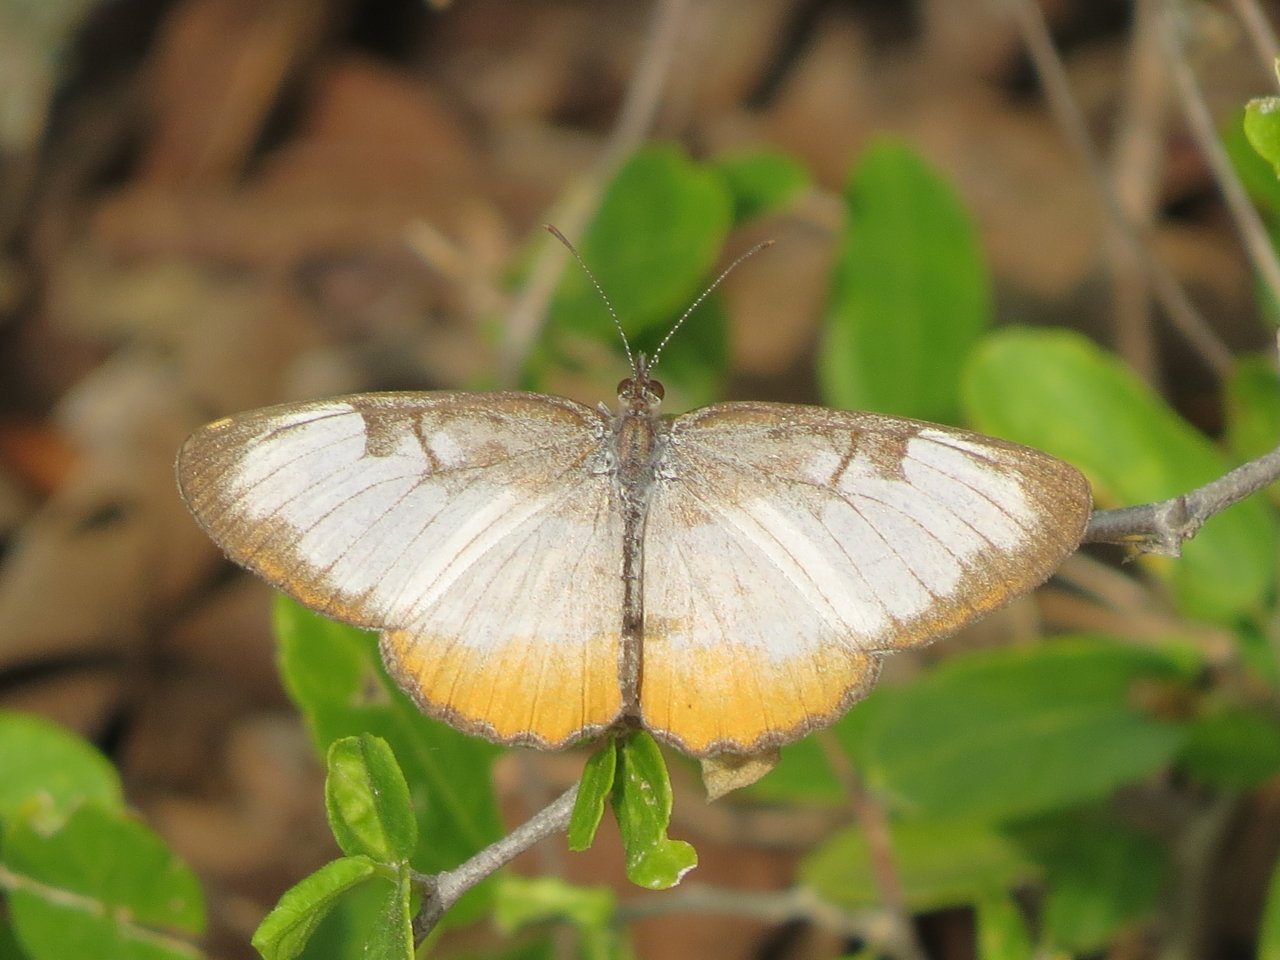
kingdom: Animalia
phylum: Arthropoda
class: Insecta
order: Lepidoptera
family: Nymphalidae
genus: Mestra
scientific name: Mestra amymone
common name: Common Mestra
